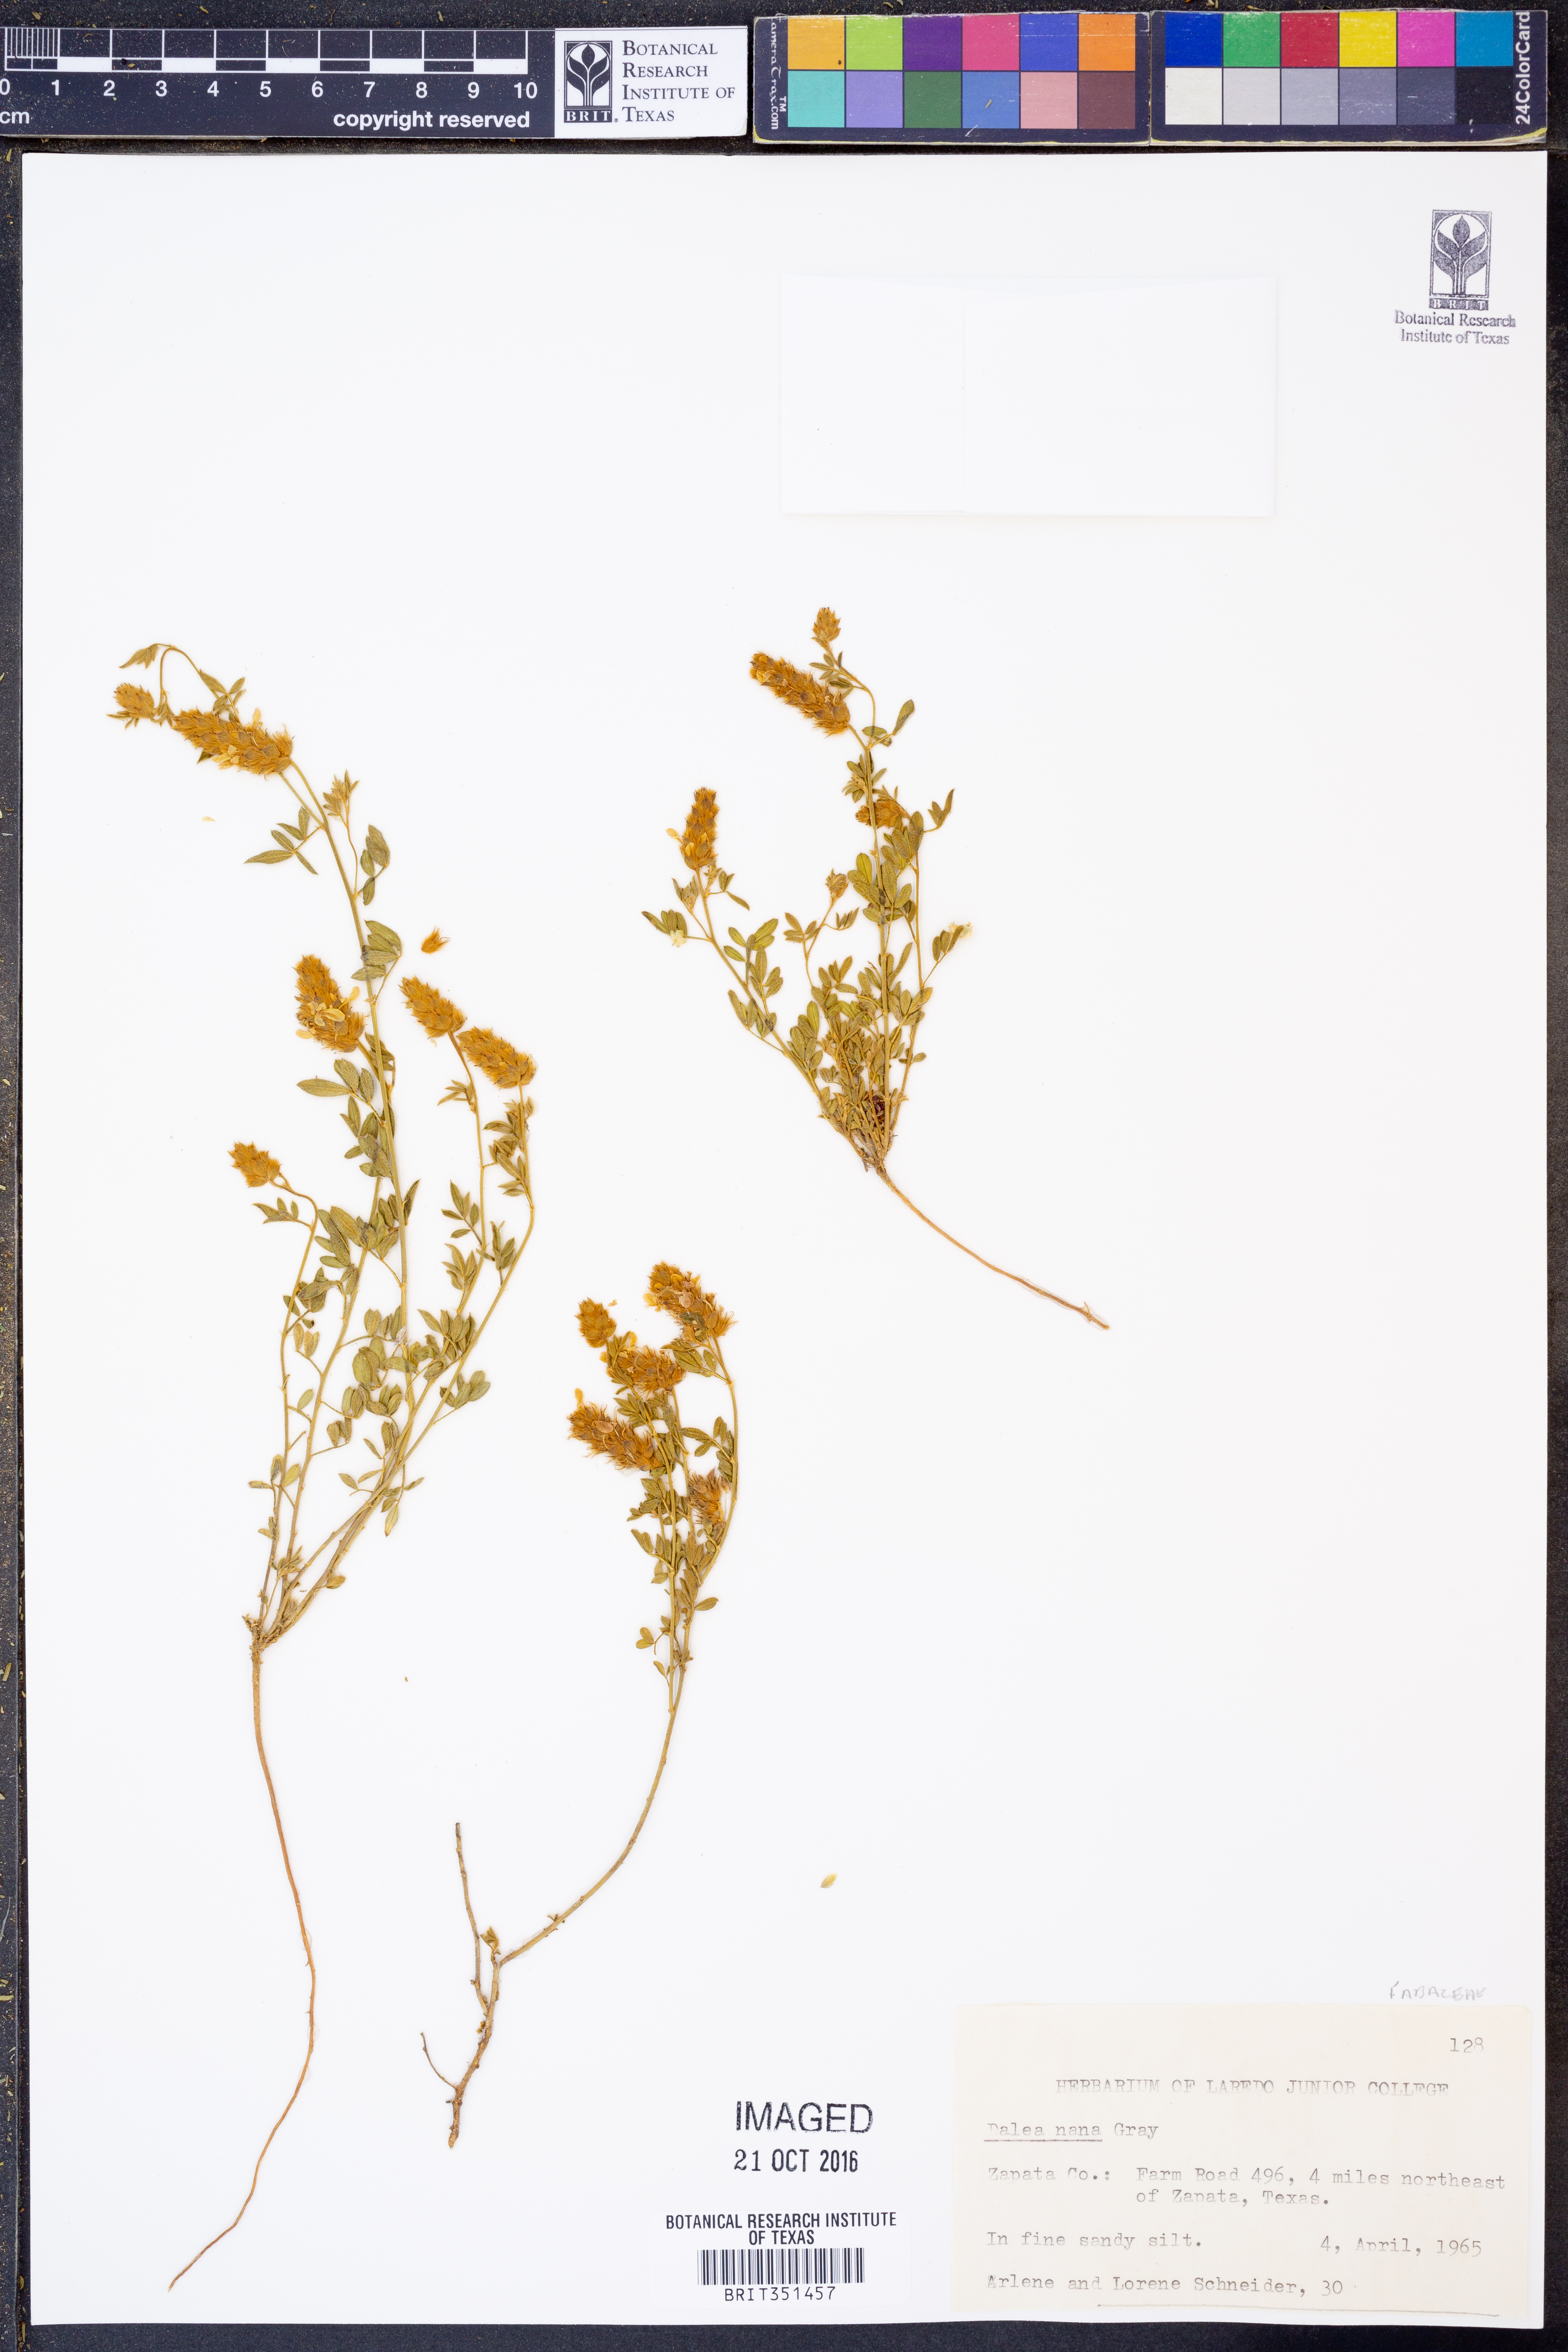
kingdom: Plantae
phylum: Tracheophyta
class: Magnoliopsida
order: Fabales
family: Fabaceae
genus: Dalea
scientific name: Dalea nana
